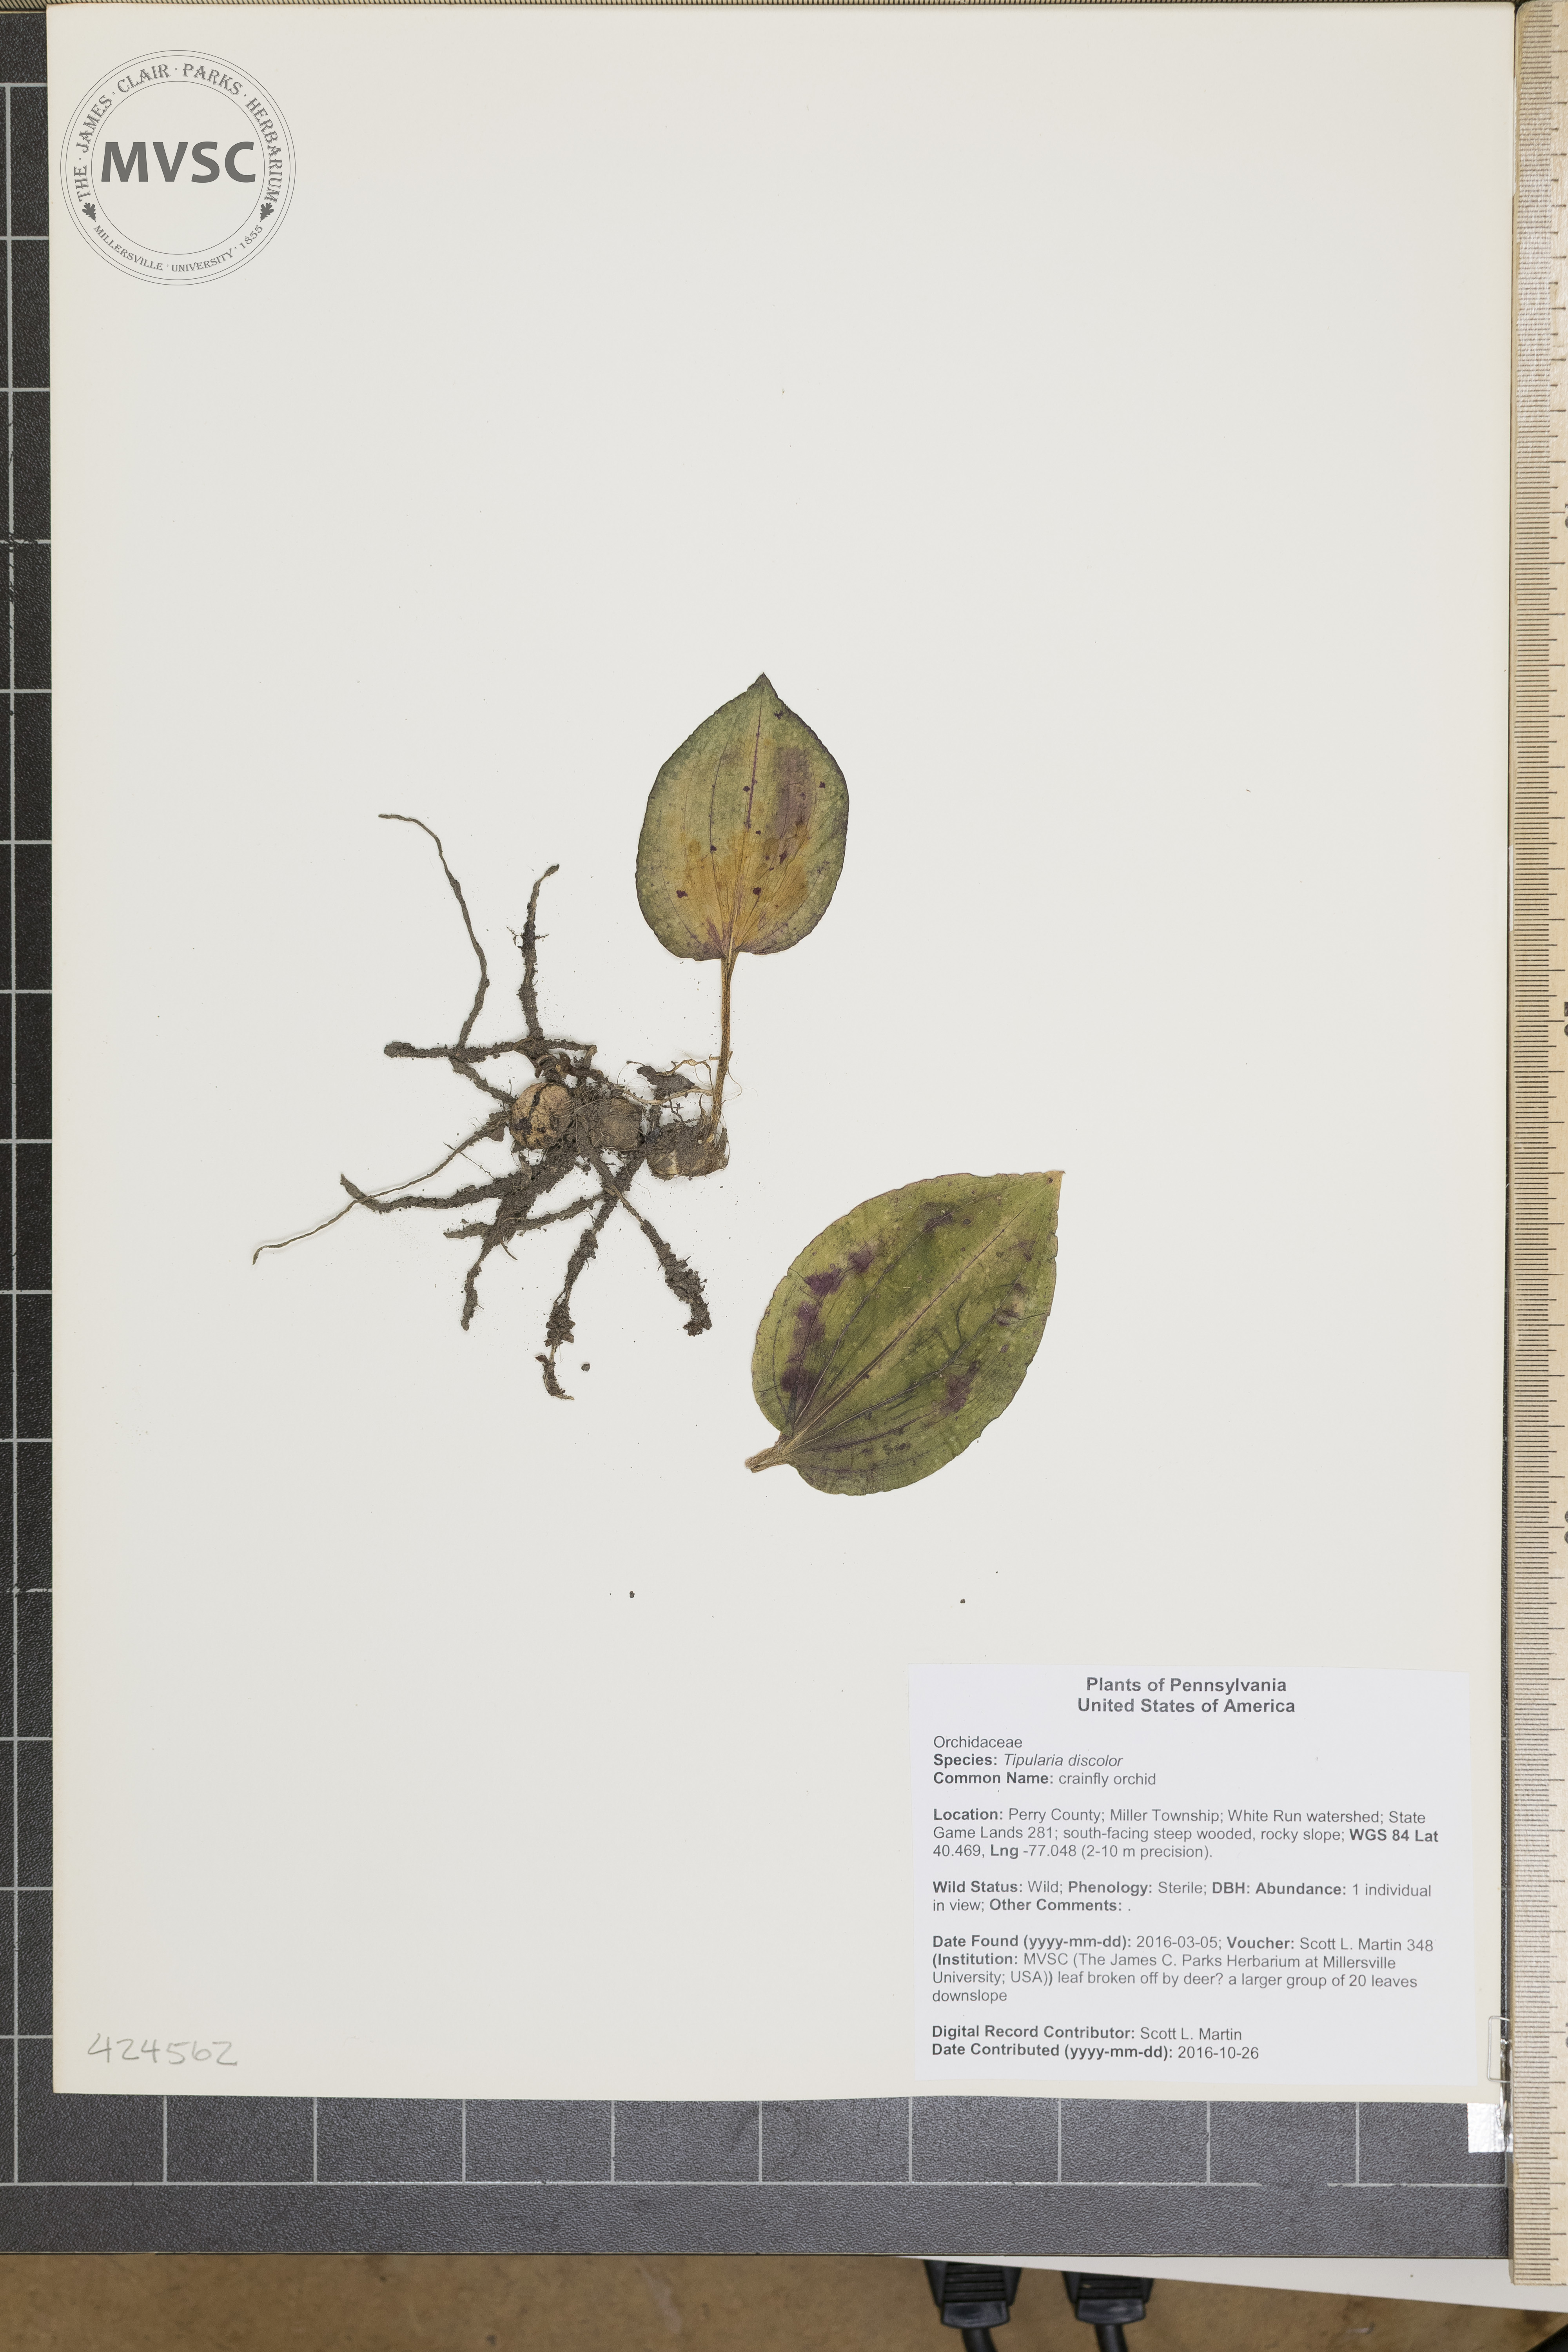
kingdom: Plantae
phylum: Tracheophyta
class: Liliopsida
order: Asparagales
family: Orchidaceae
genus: Tipularia
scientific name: Tipularia discolor
